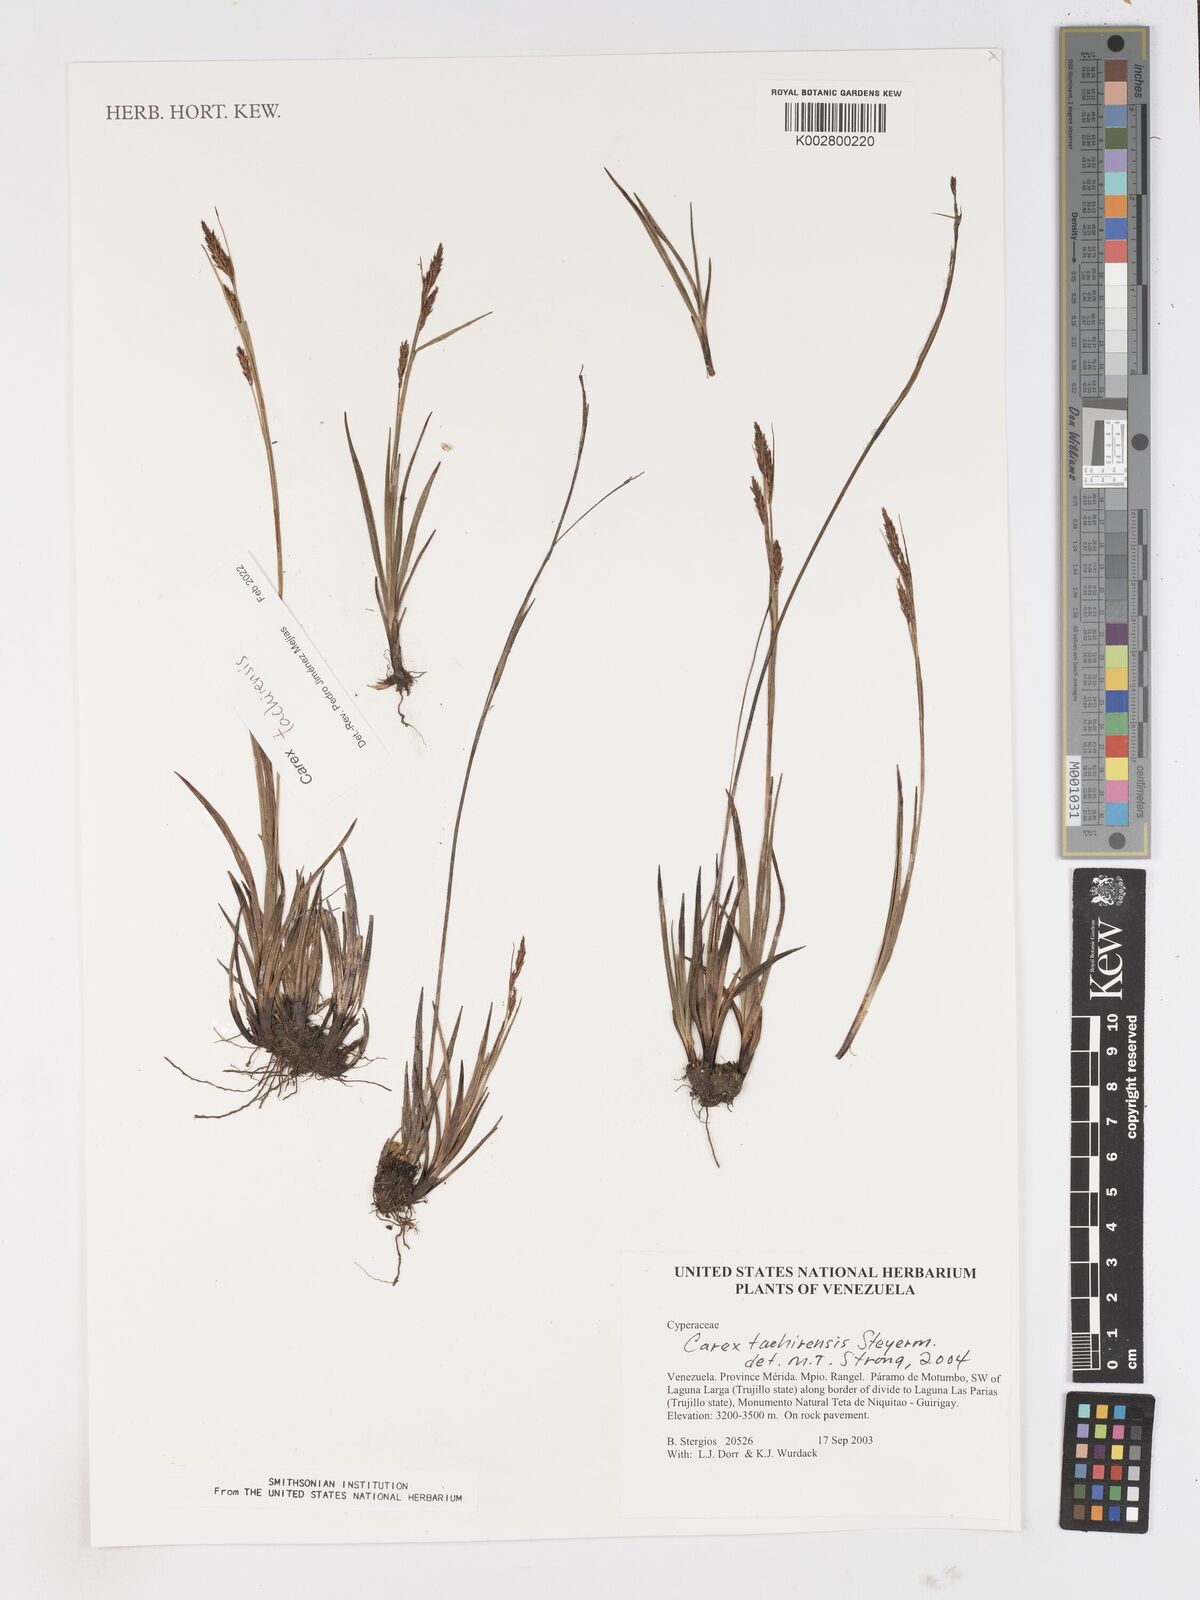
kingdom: Plantae
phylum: Tracheophyta
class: Liliopsida
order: Poales
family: Cyperaceae
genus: Carex
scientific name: Carex tachirensis
